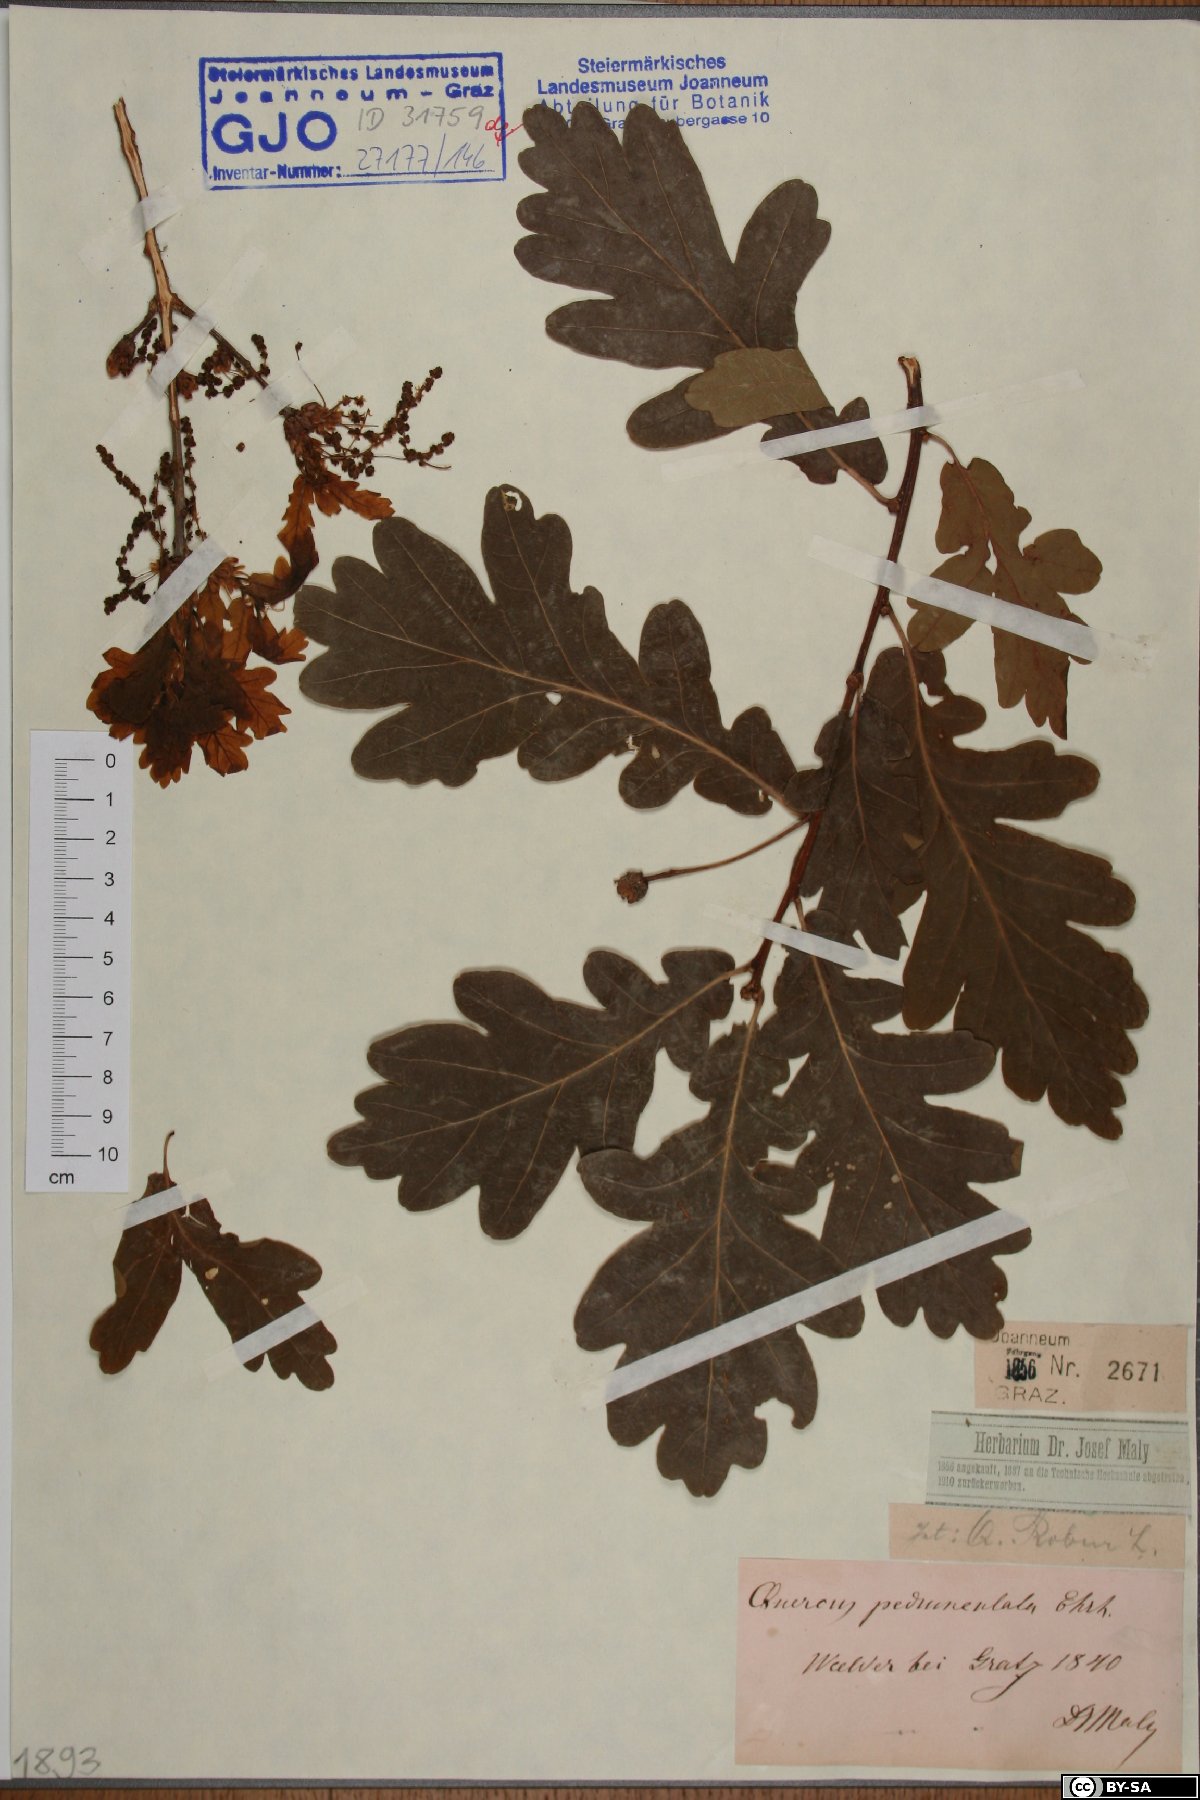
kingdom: Plantae
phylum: Tracheophyta
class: Magnoliopsida
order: Fagales
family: Fagaceae
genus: Quercus
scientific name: Quercus robur
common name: Pedunculate oak
